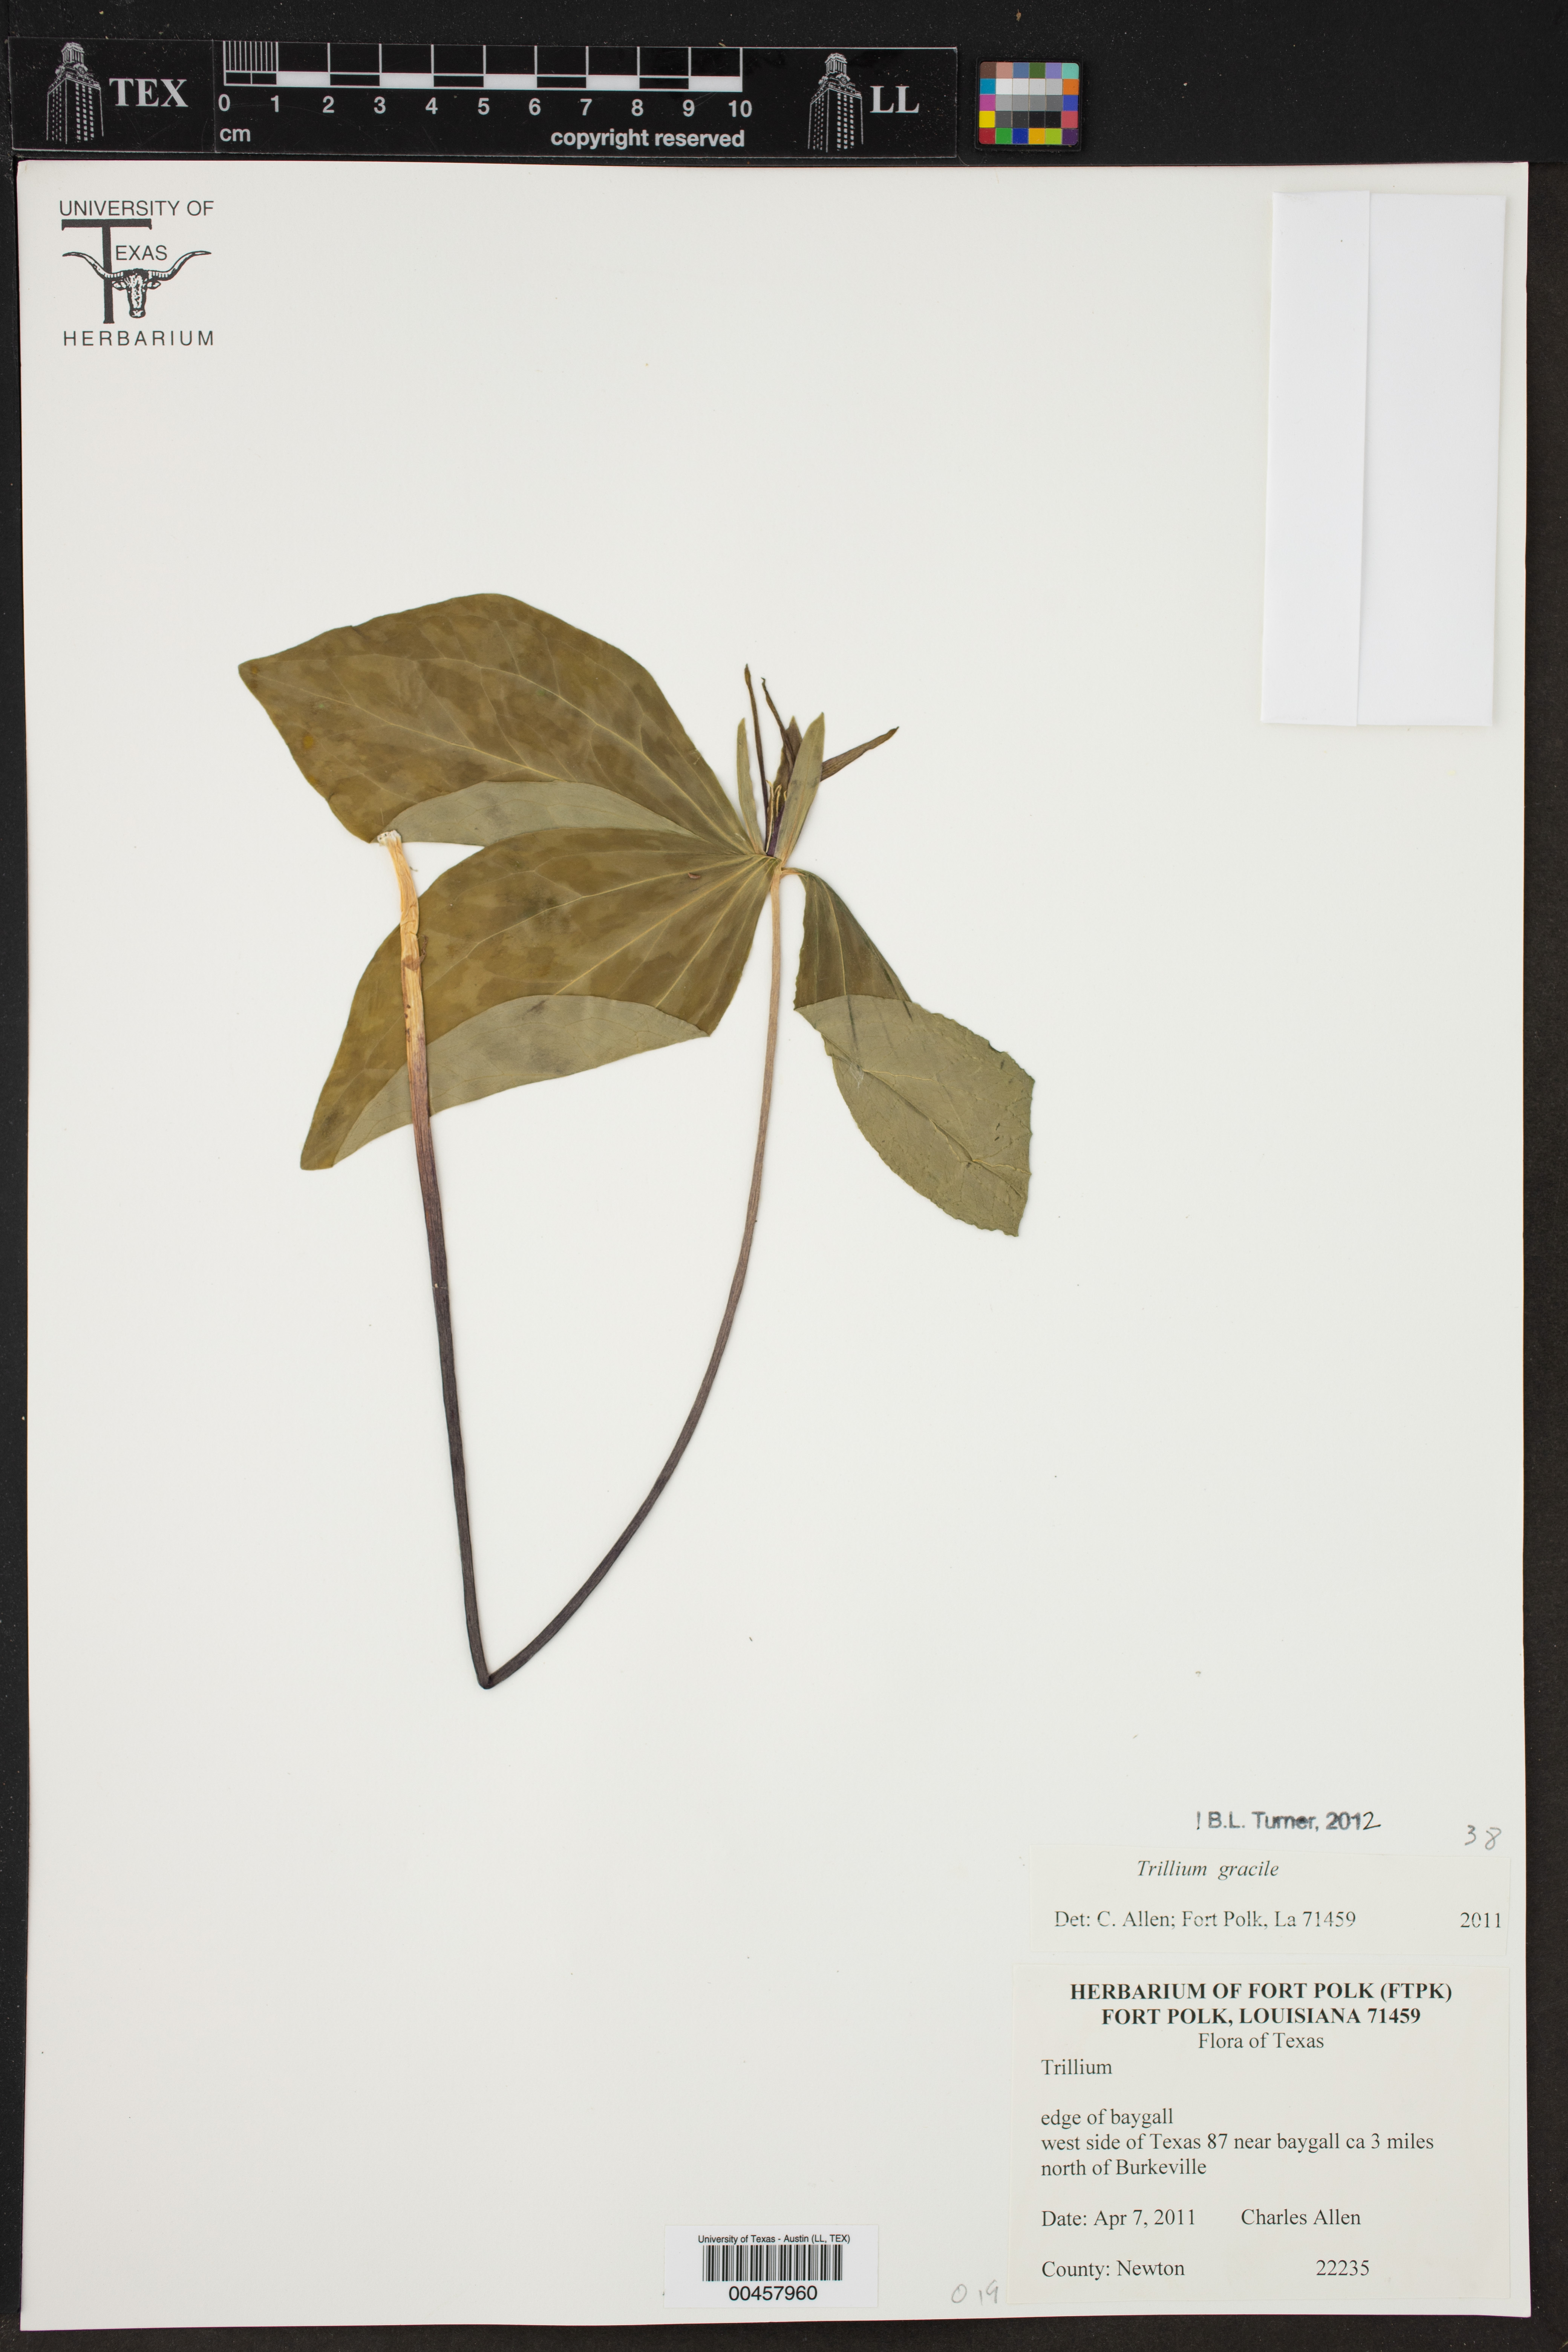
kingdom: Plantae
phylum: Tracheophyta
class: Liliopsida
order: Liliales
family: Melanthiaceae
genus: Trillium
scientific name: Trillium gracile
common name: Graceful trillium
